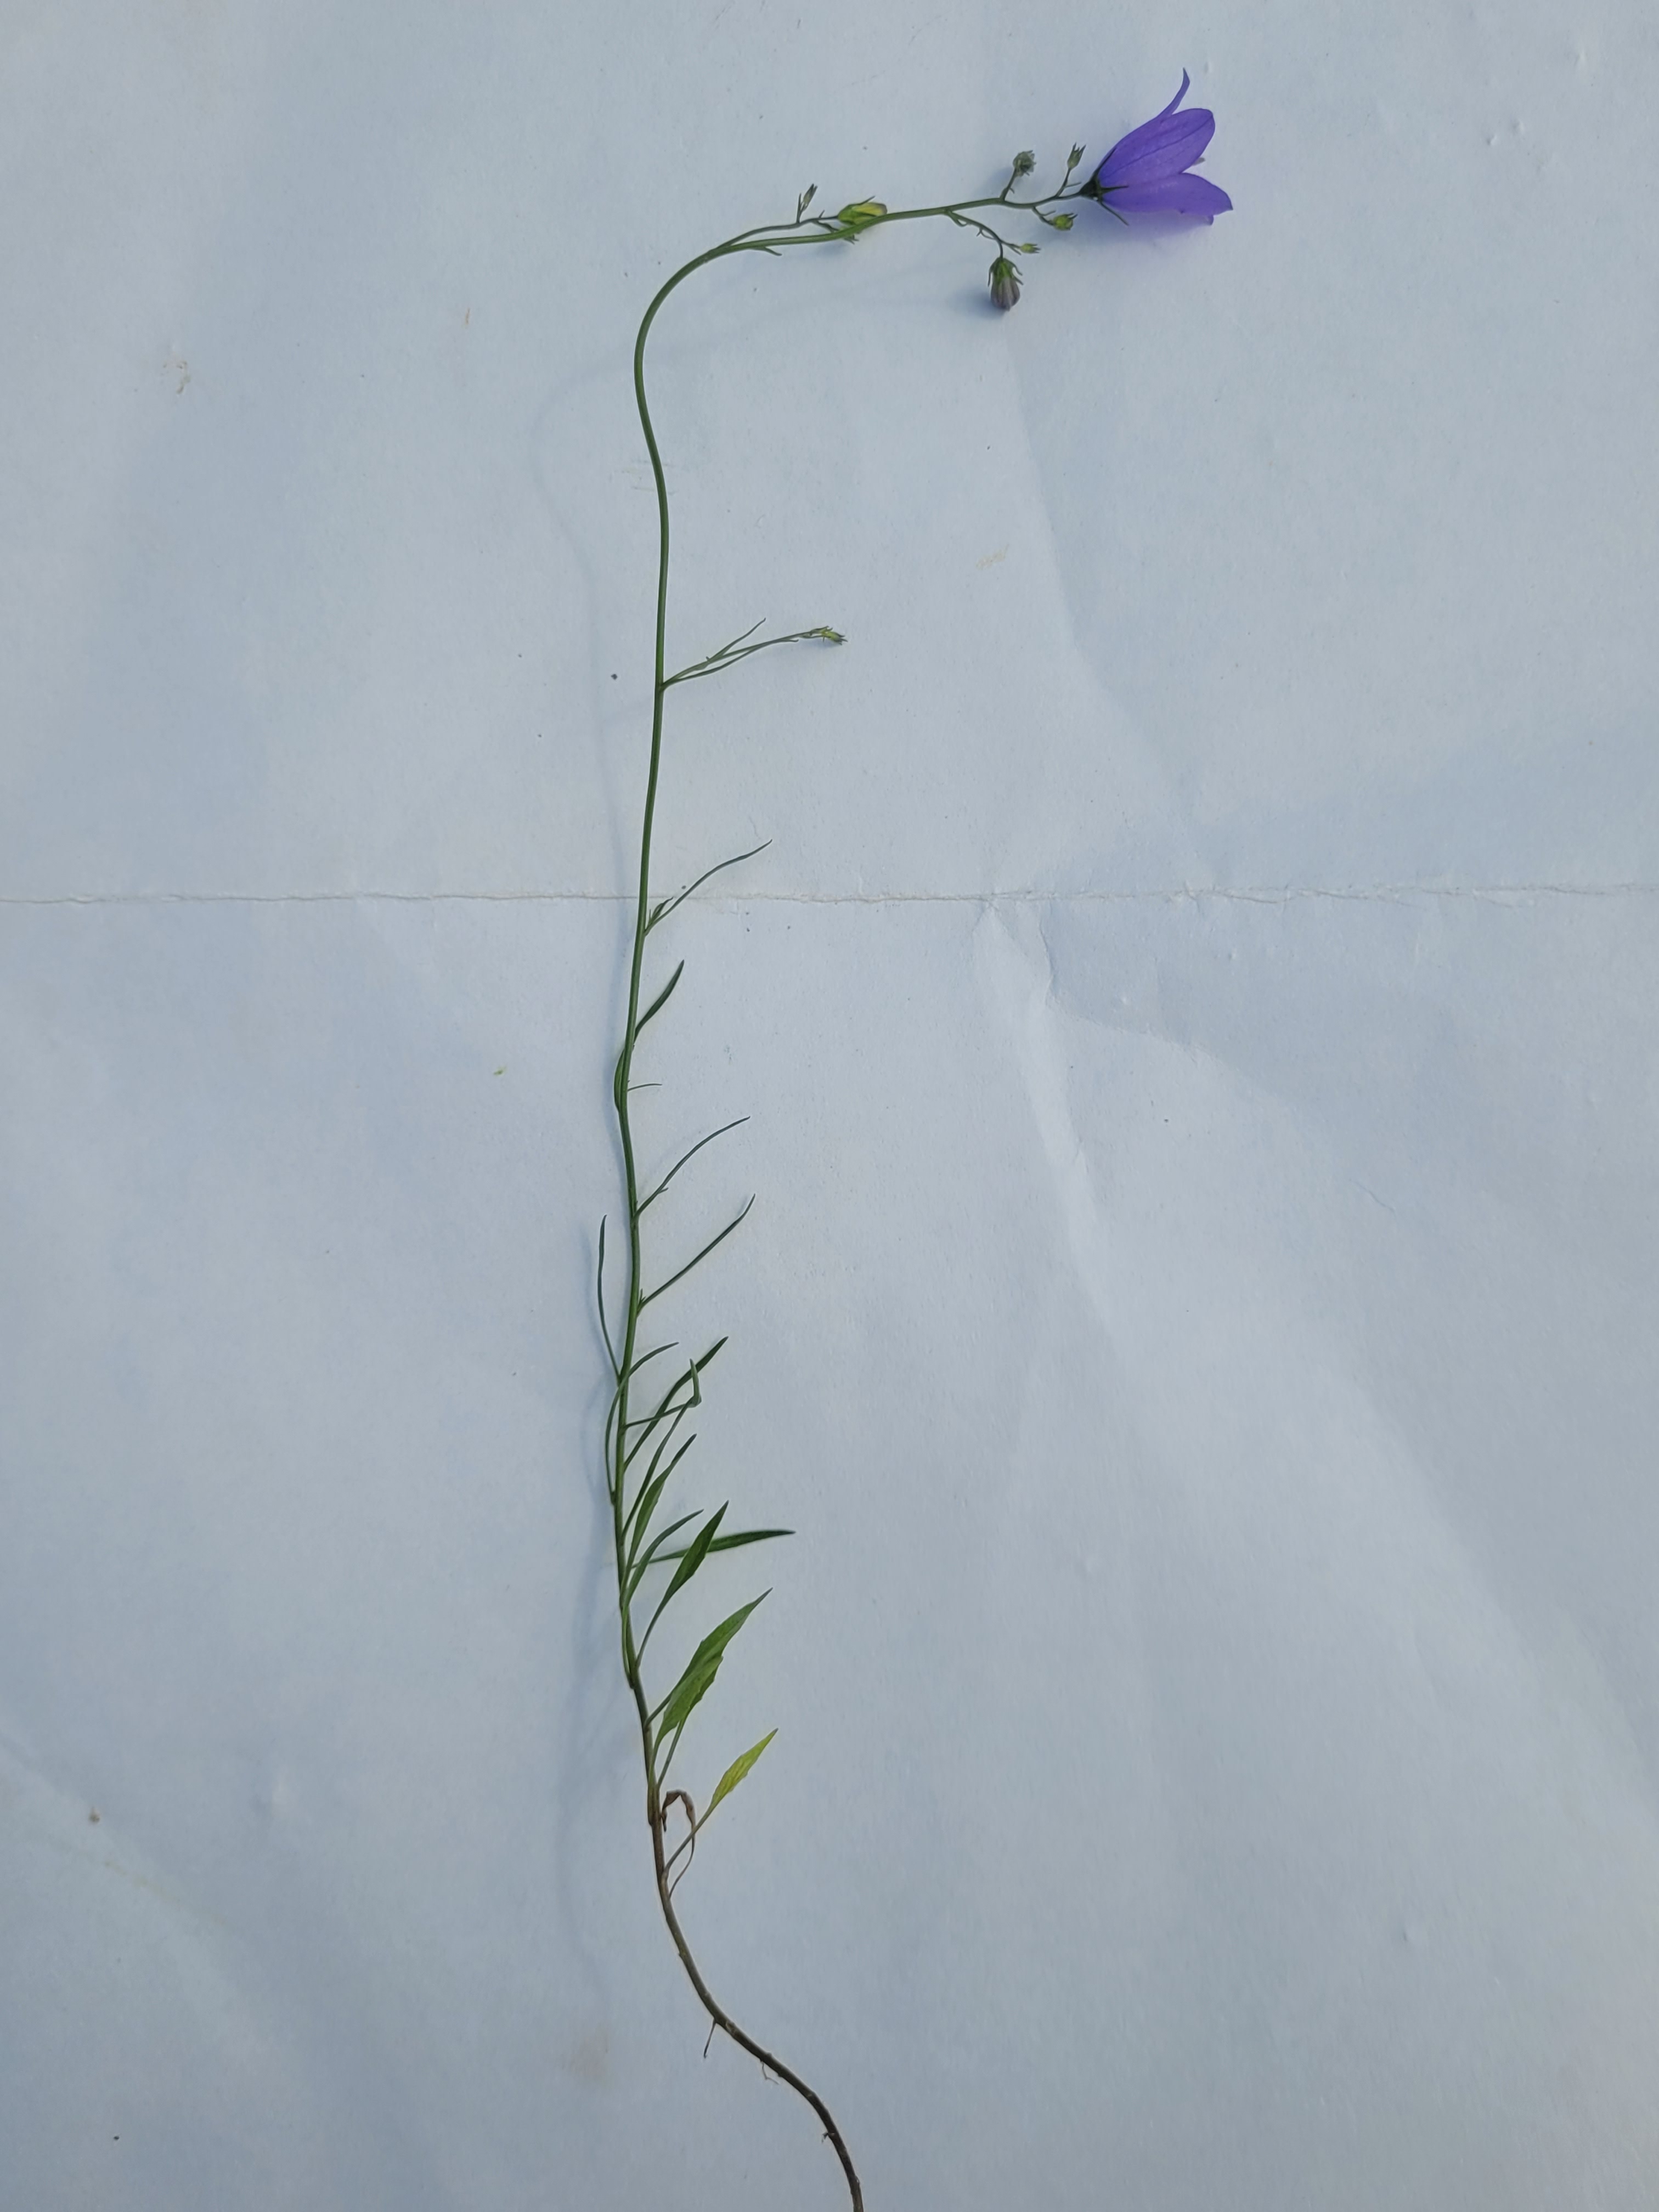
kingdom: Plantae
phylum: Tracheophyta
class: Magnoliopsida
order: Asterales
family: Campanulaceae
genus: Campanula
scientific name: Campanula rotundifolia
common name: Liden klokke
